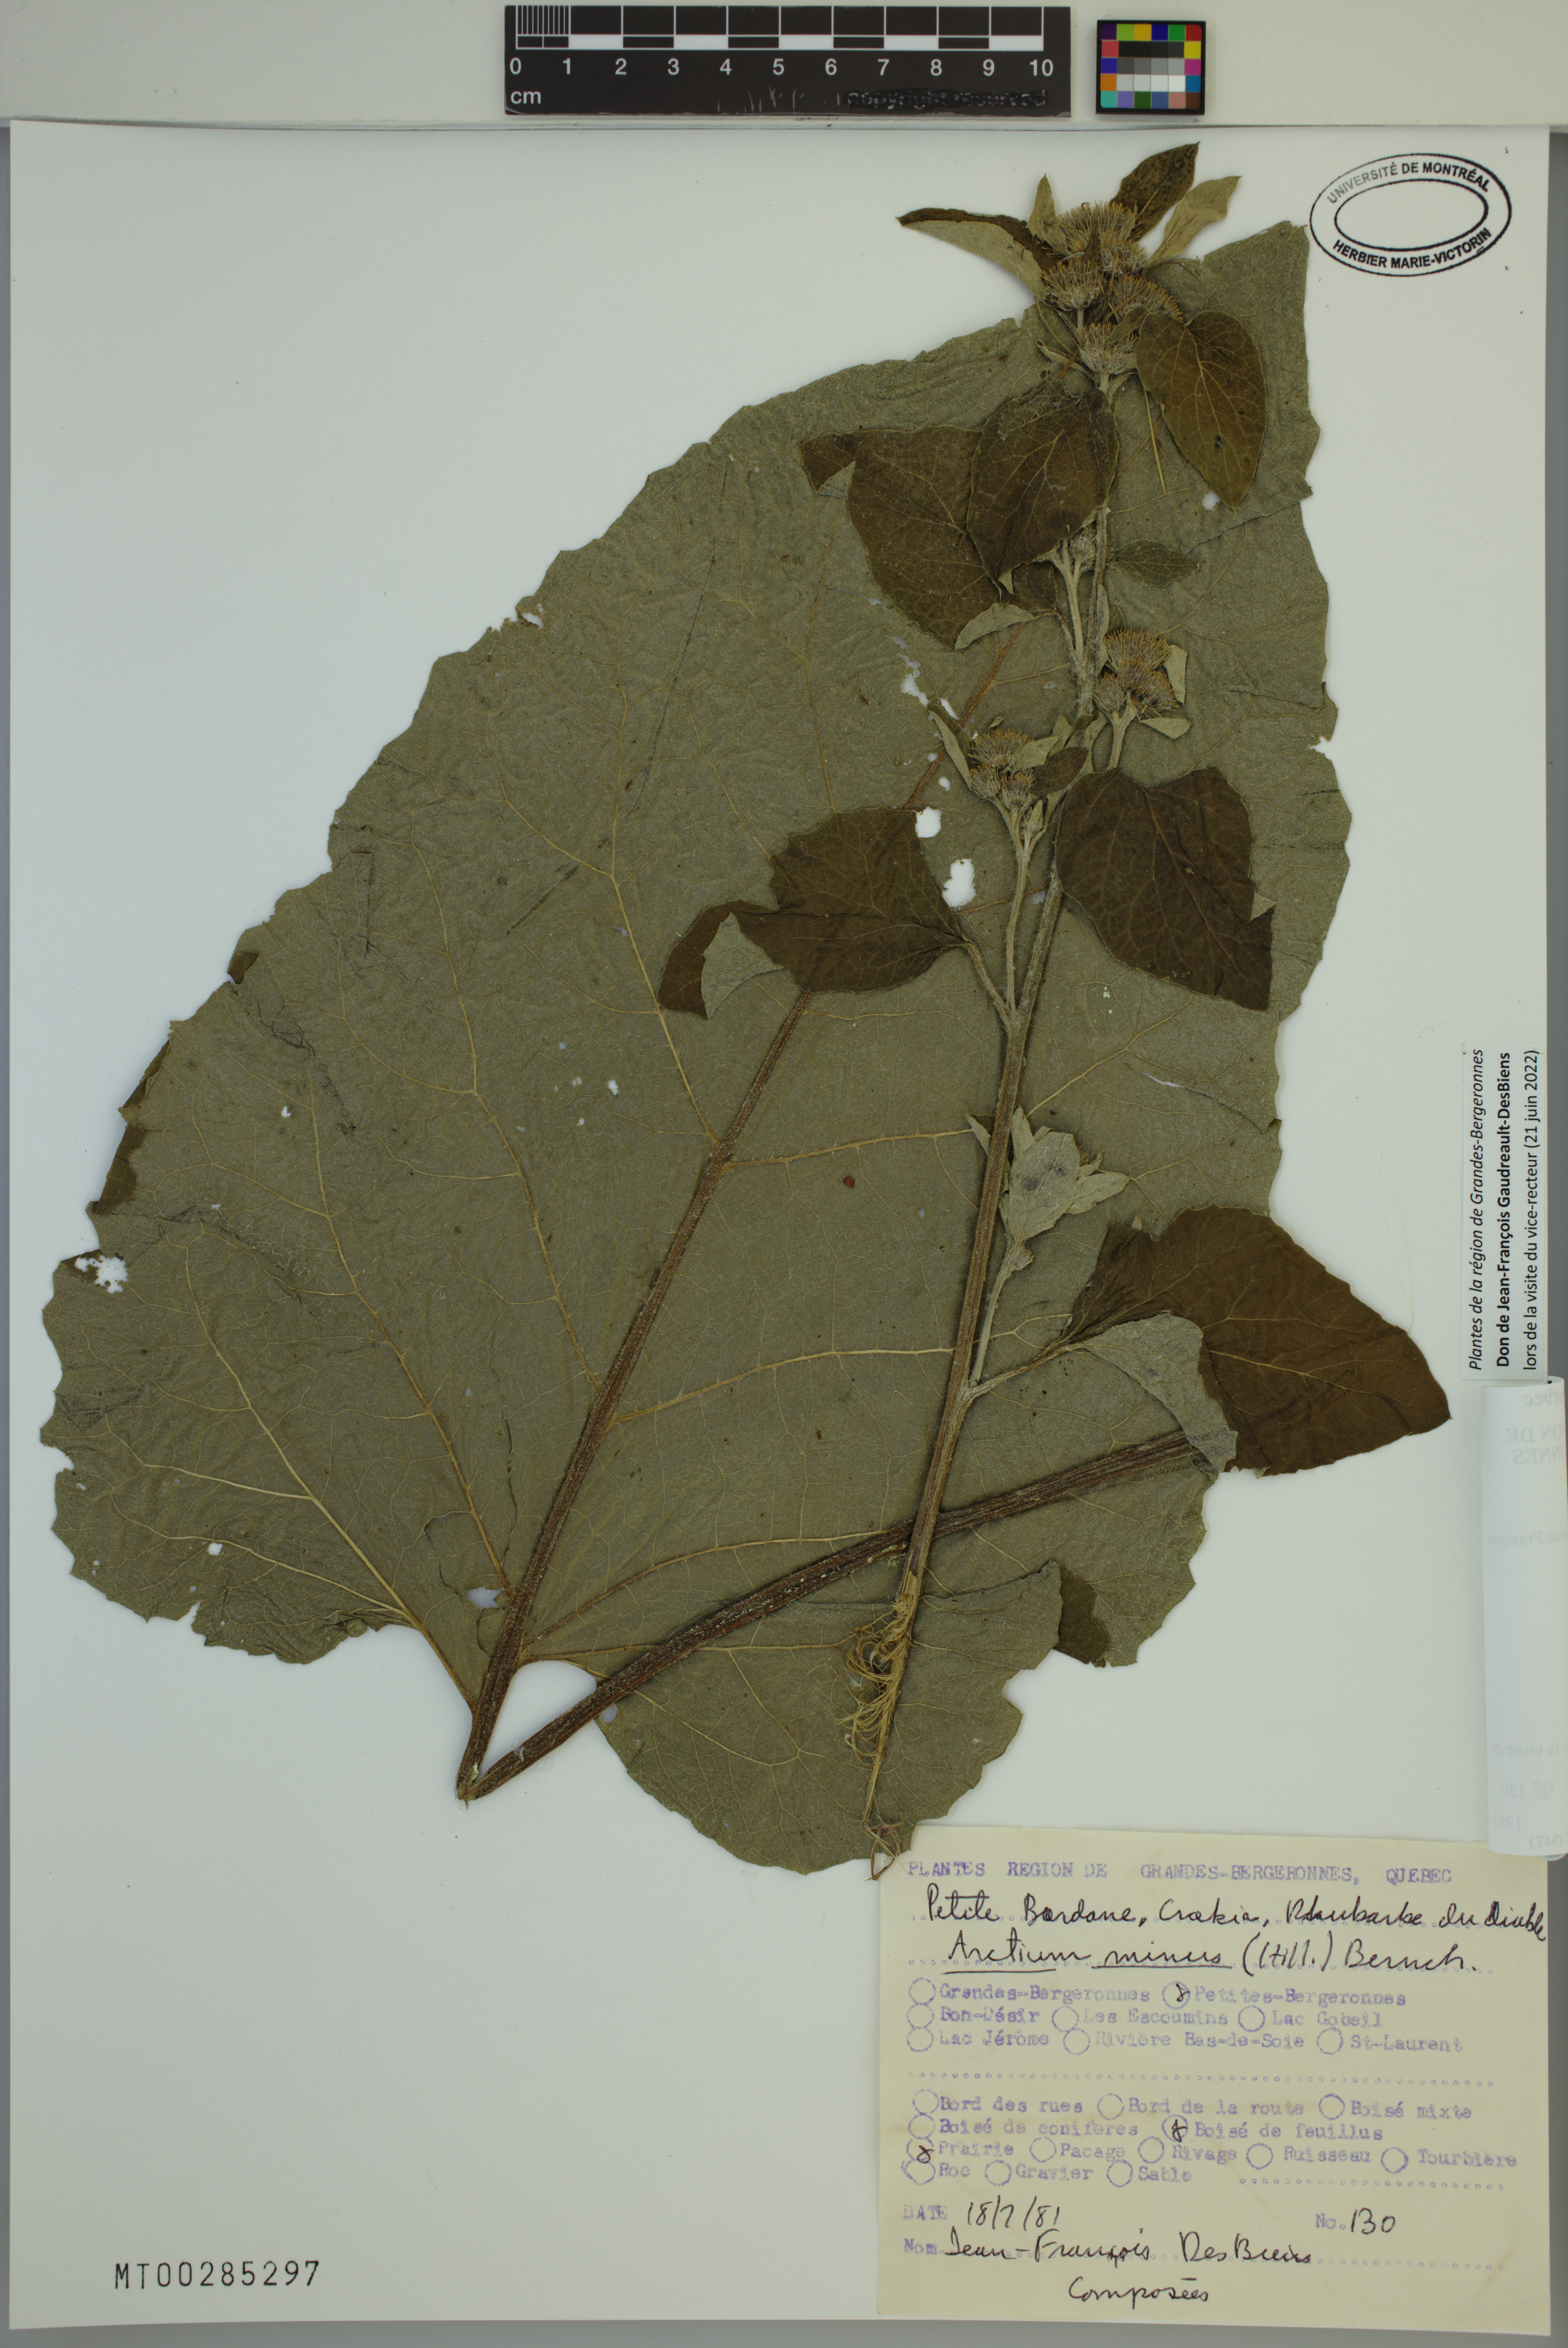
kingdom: Plantae
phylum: Tracheophyta
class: Magnoliopsida
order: Asterales
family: Asteraceae
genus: Arctium
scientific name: Arctium minus
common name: Lesser burdock
